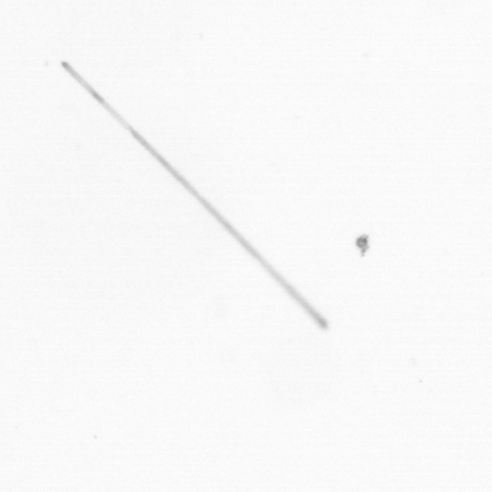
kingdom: Chromista
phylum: Ochrophyta
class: Bacillariophyceae
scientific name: Bacillariophyceae
